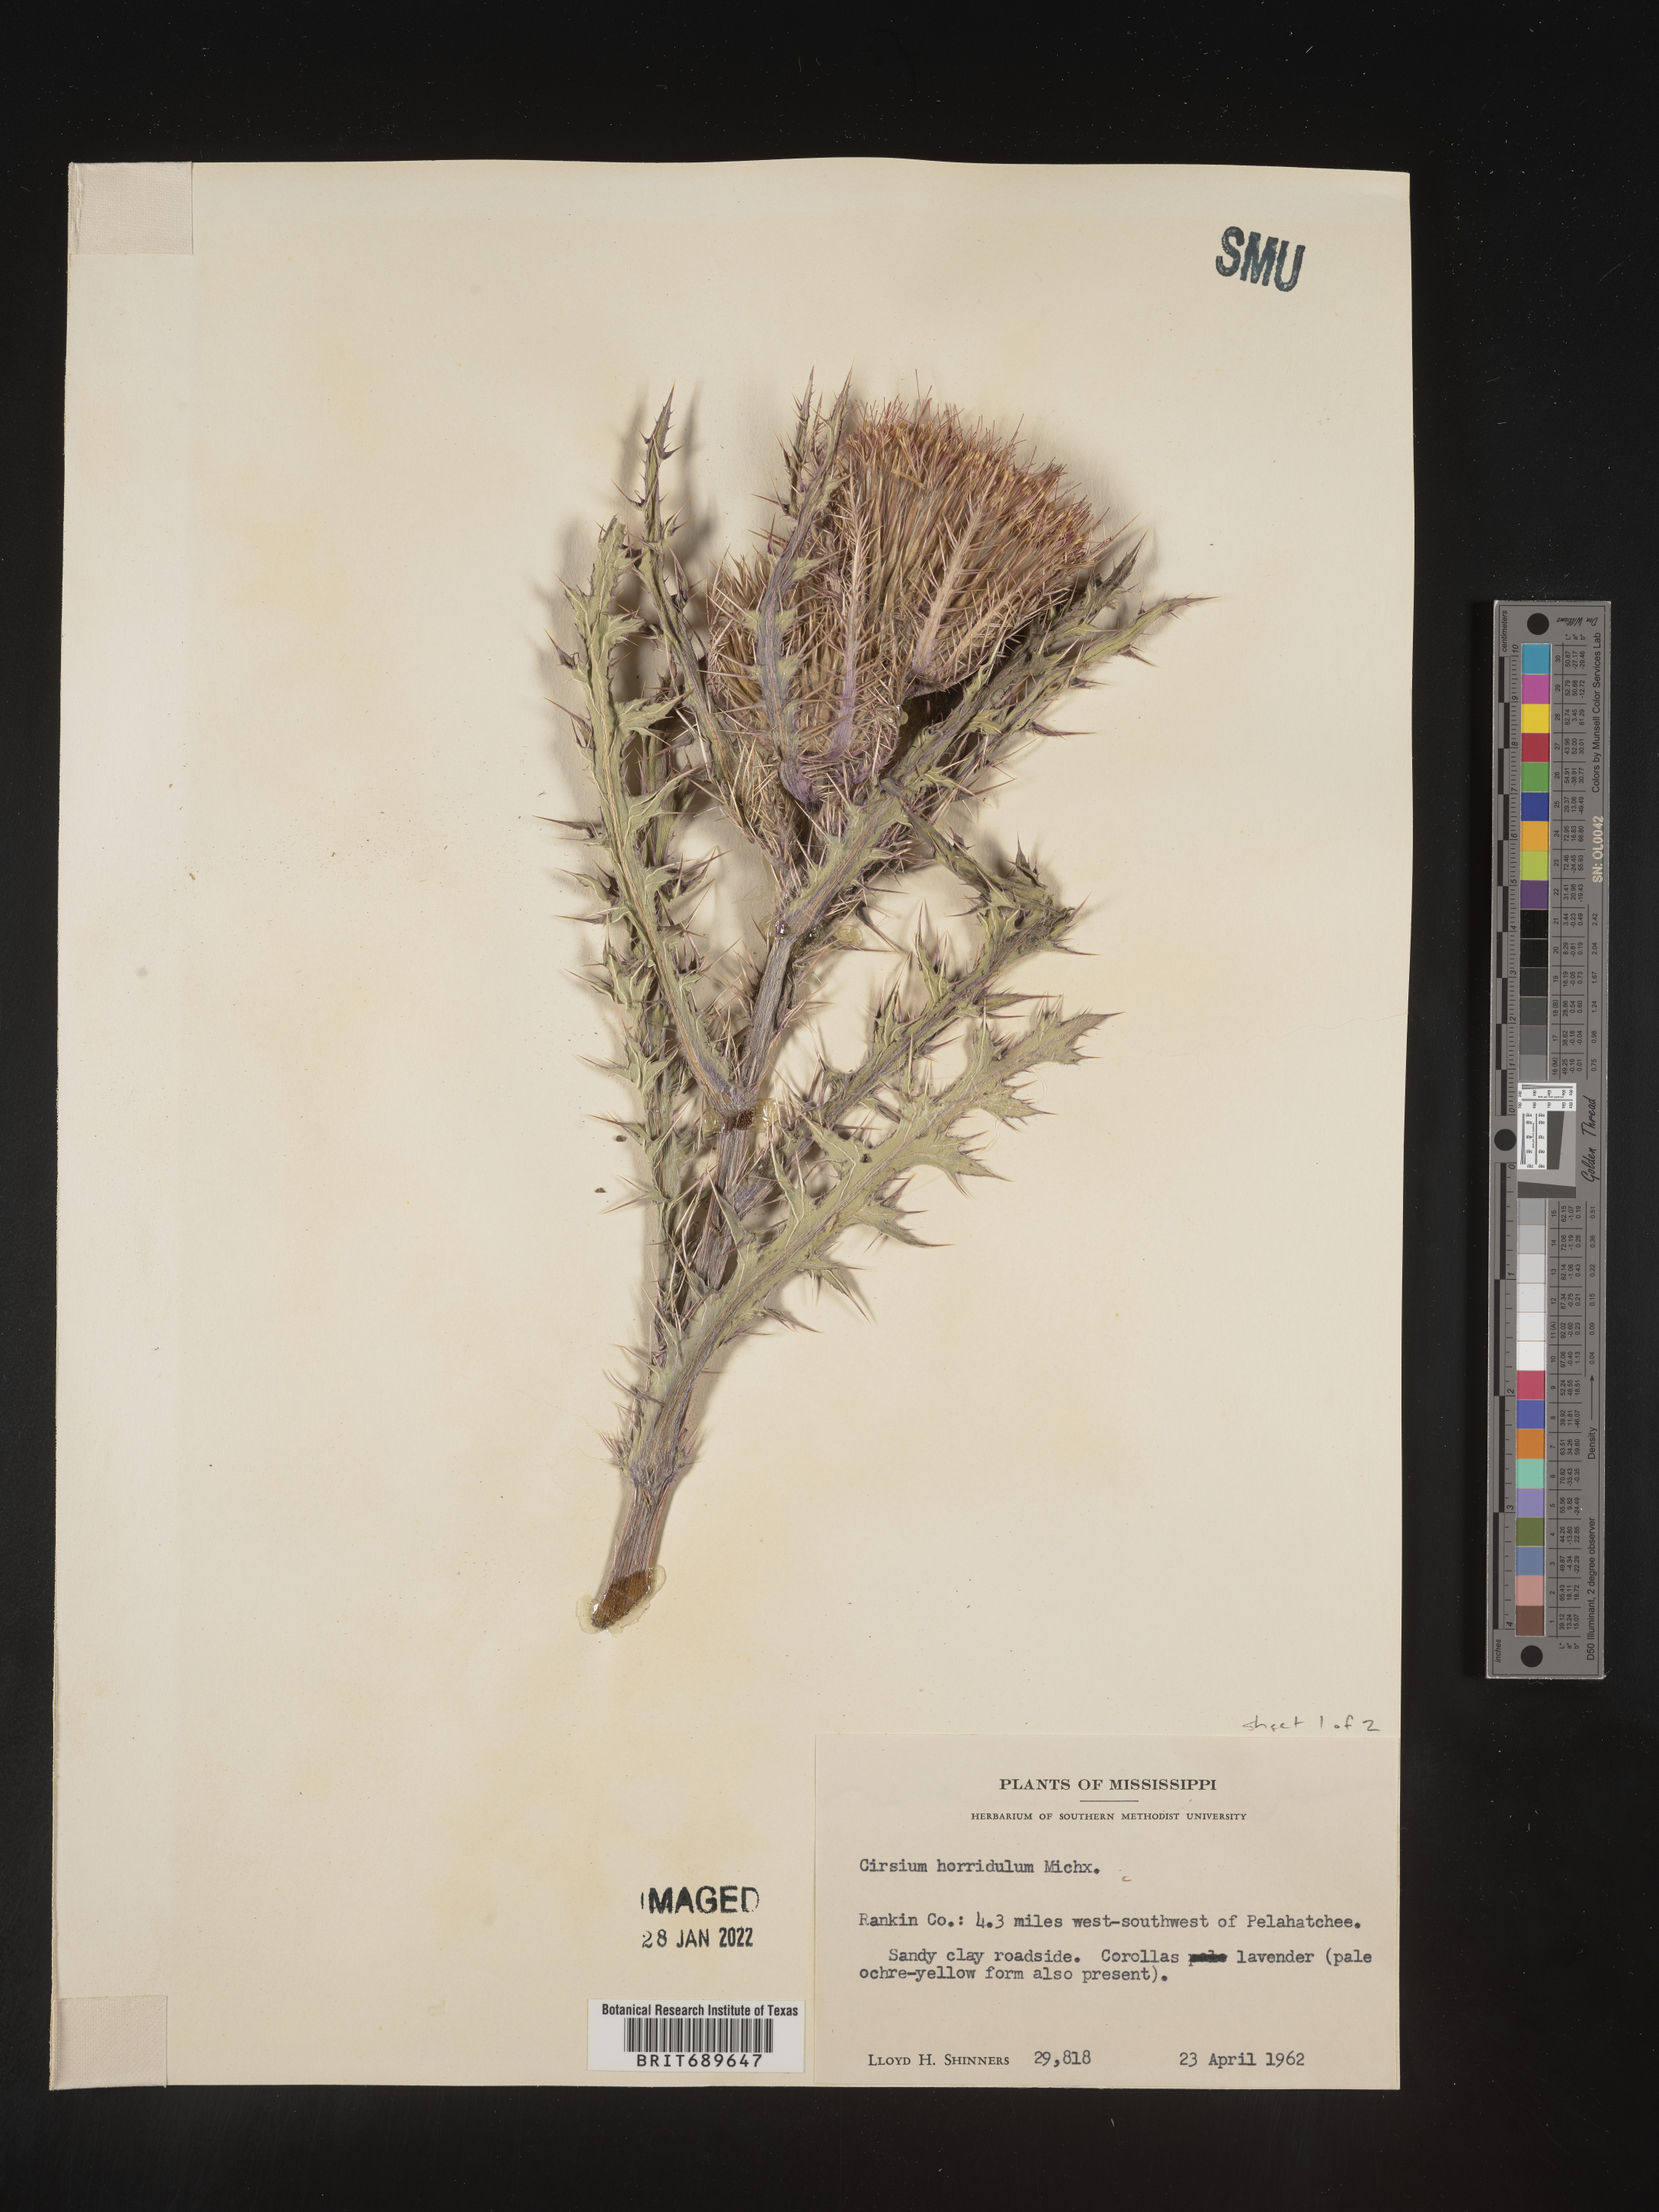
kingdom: Plantae
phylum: Tracheophyta
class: Magnoliopsida
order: Asterales
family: Asteraceae
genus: Cirsium
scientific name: Cirsium horridulum
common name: Bristly thistle
